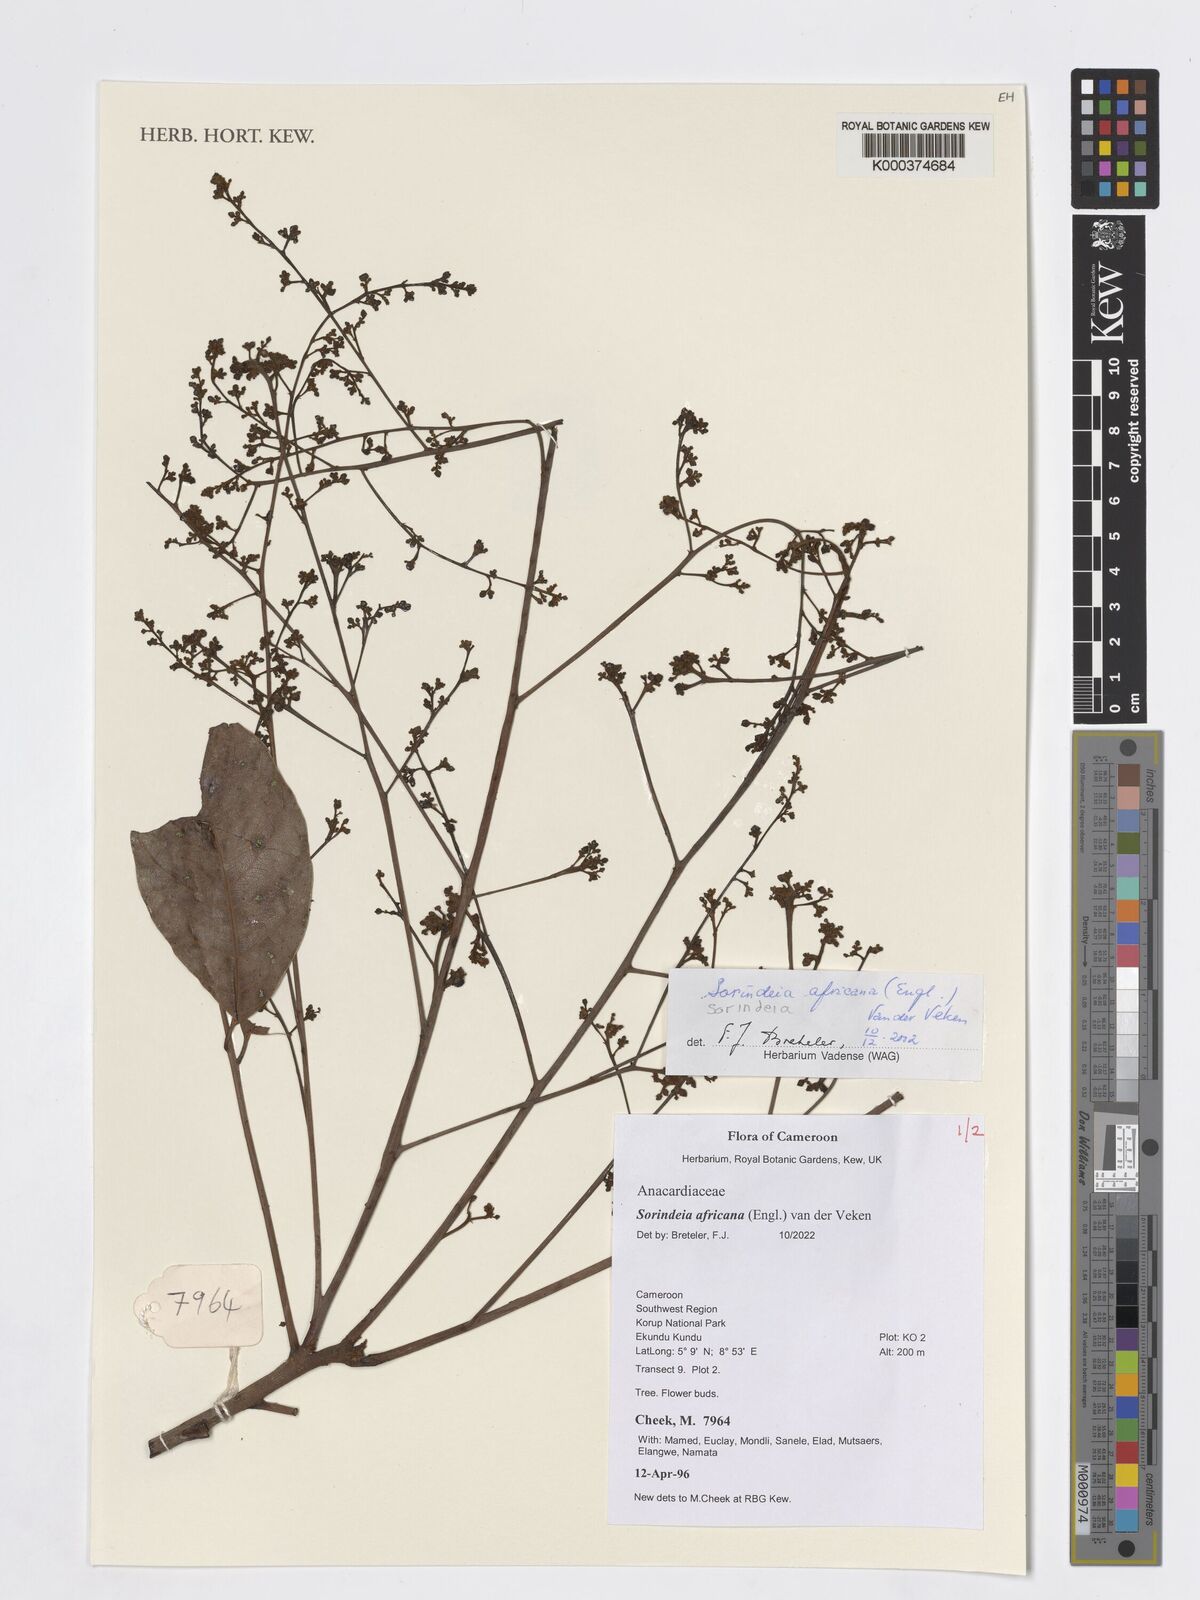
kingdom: Plantae
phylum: Tracheophyta
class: Magnoliopsida
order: Sapindales
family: Anacardiaceae
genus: Sorindeia
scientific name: Sorindeia africana
